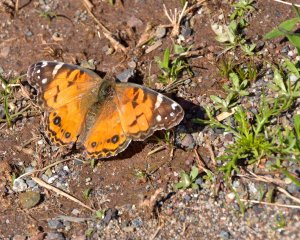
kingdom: Animalia
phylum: Arthropoda
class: Insecta
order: Lepidoptera
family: Nymphalidae
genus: Vanessa
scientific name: Vanessa virginiensis
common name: American Lady
